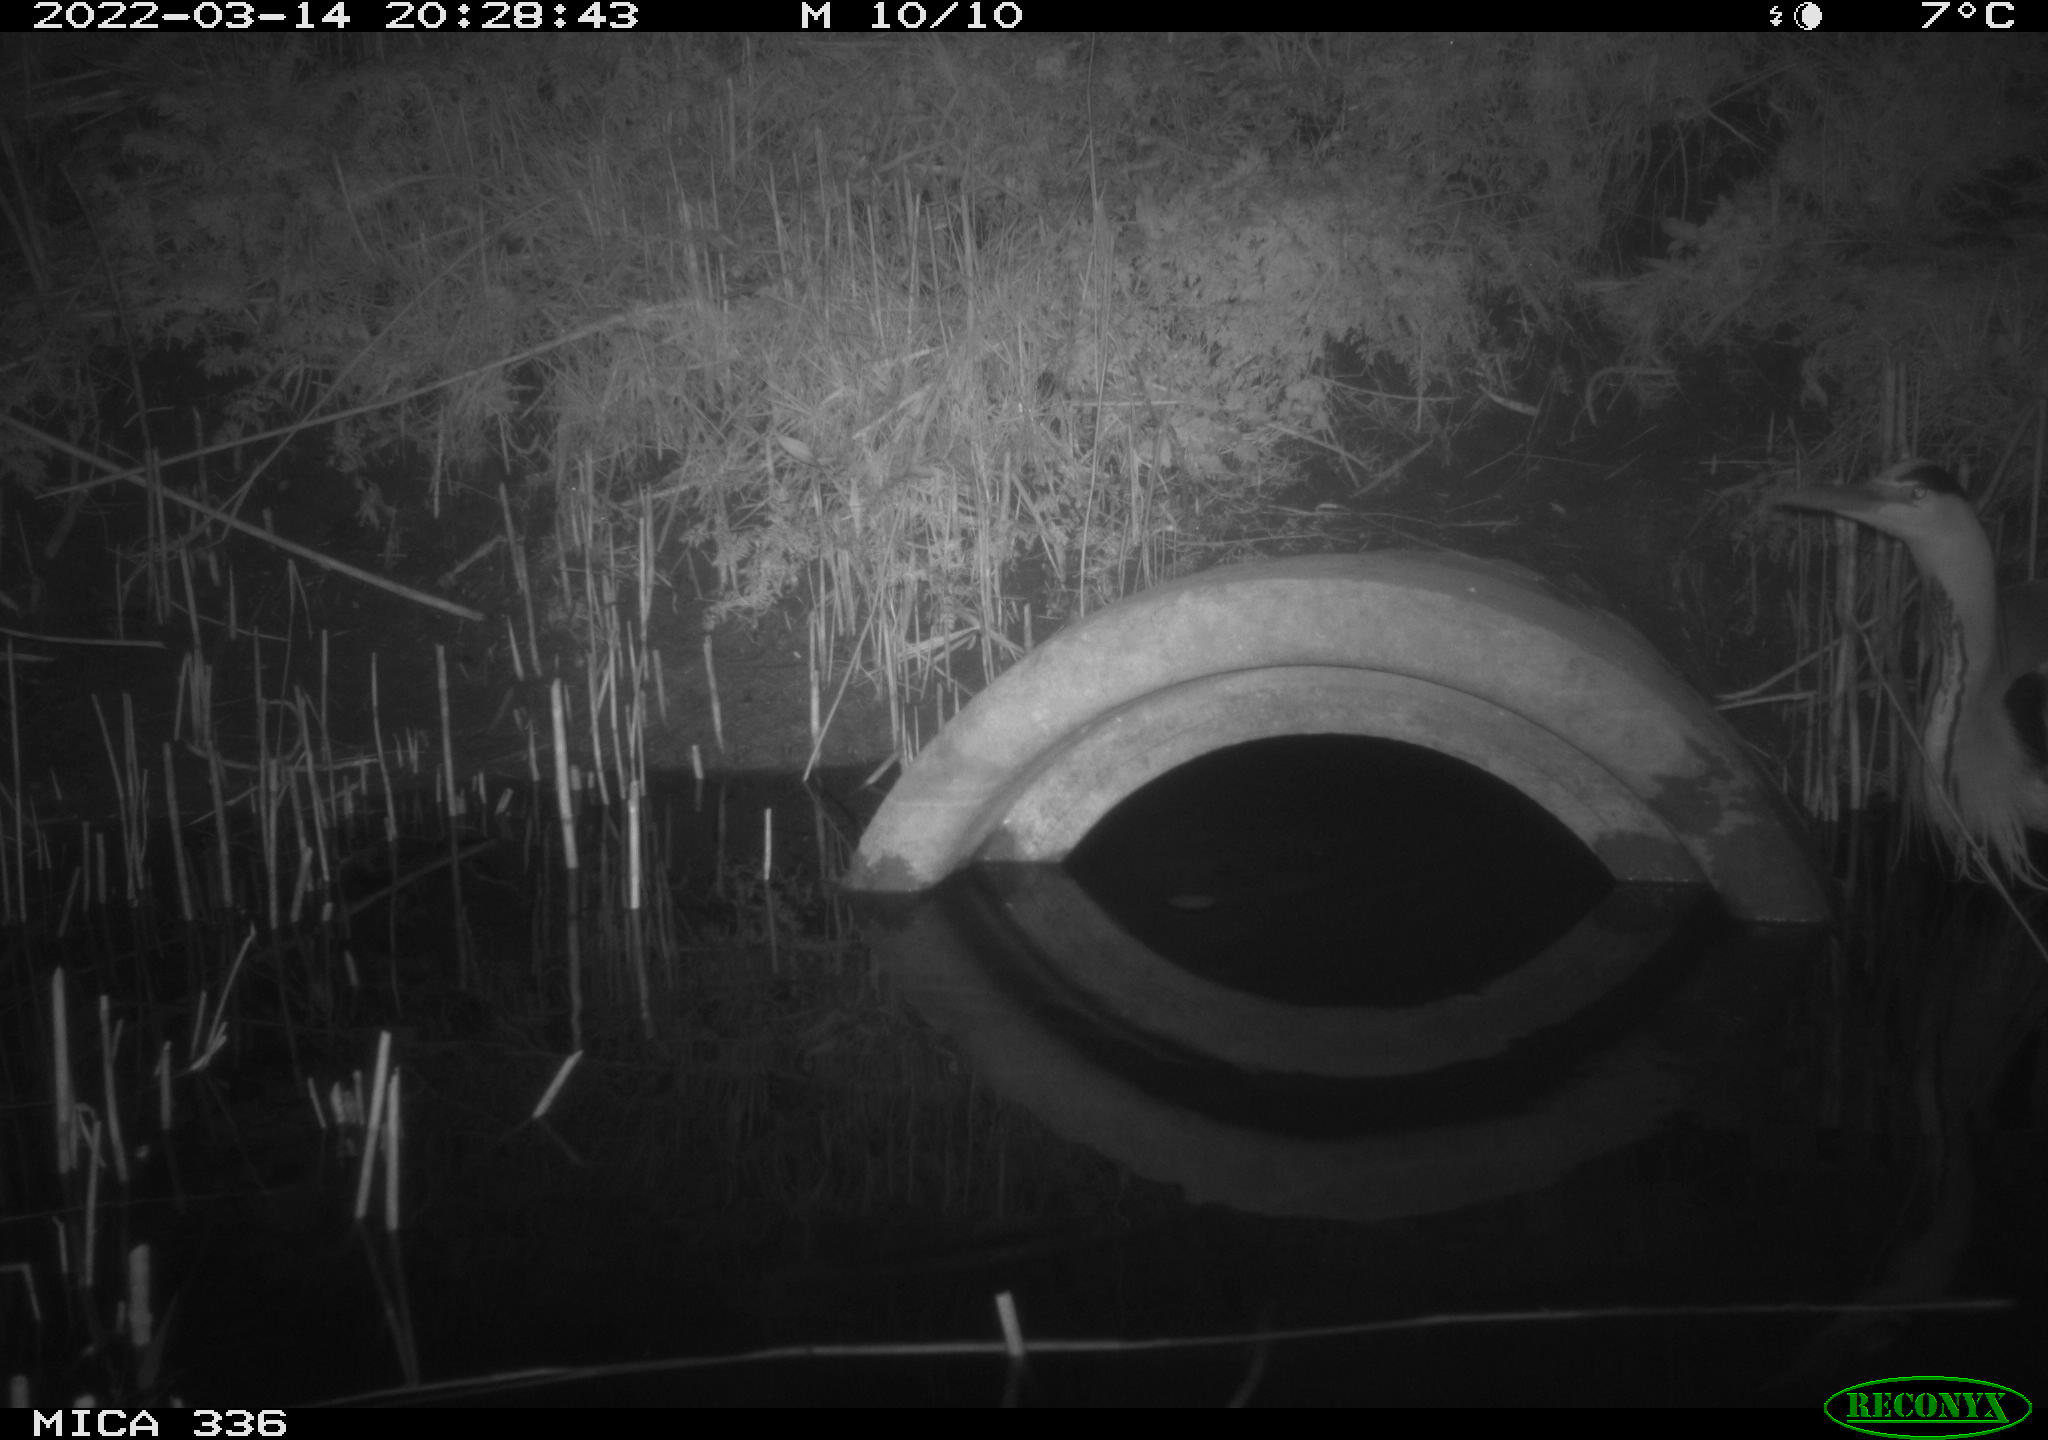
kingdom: Animalia
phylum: Chordata
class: Aves
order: Pelecaniformes
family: Ardeidae
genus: Ardea
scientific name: Ardea cinerea
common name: Grey heron
